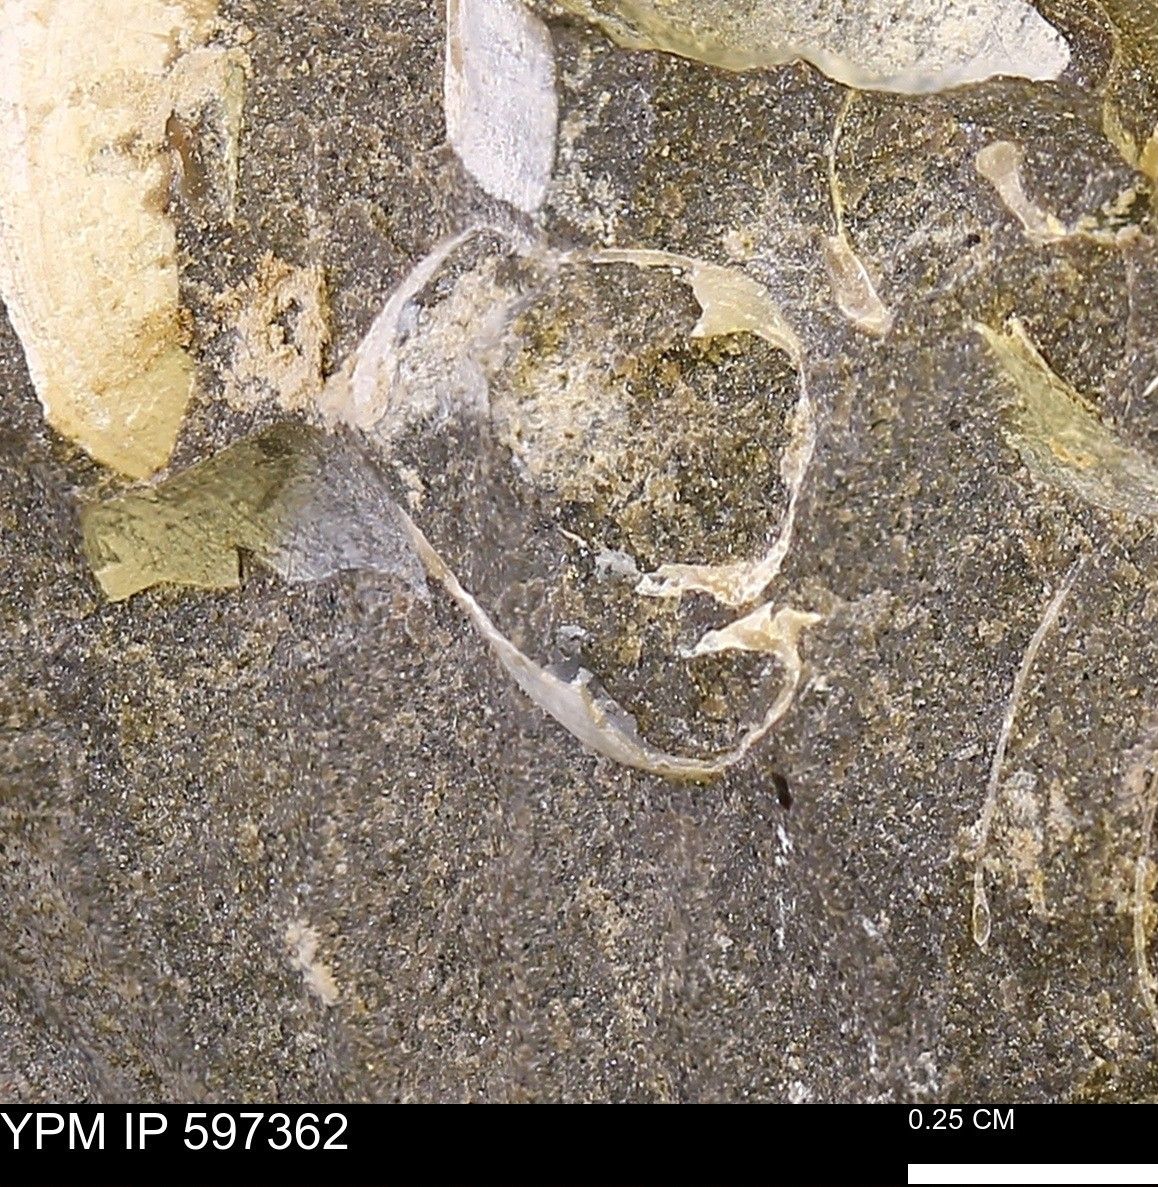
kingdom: Animalia
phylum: Mollusca
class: Bivalvia
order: Arcida
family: Limopsidae
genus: Limopsis
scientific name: Limopsis
